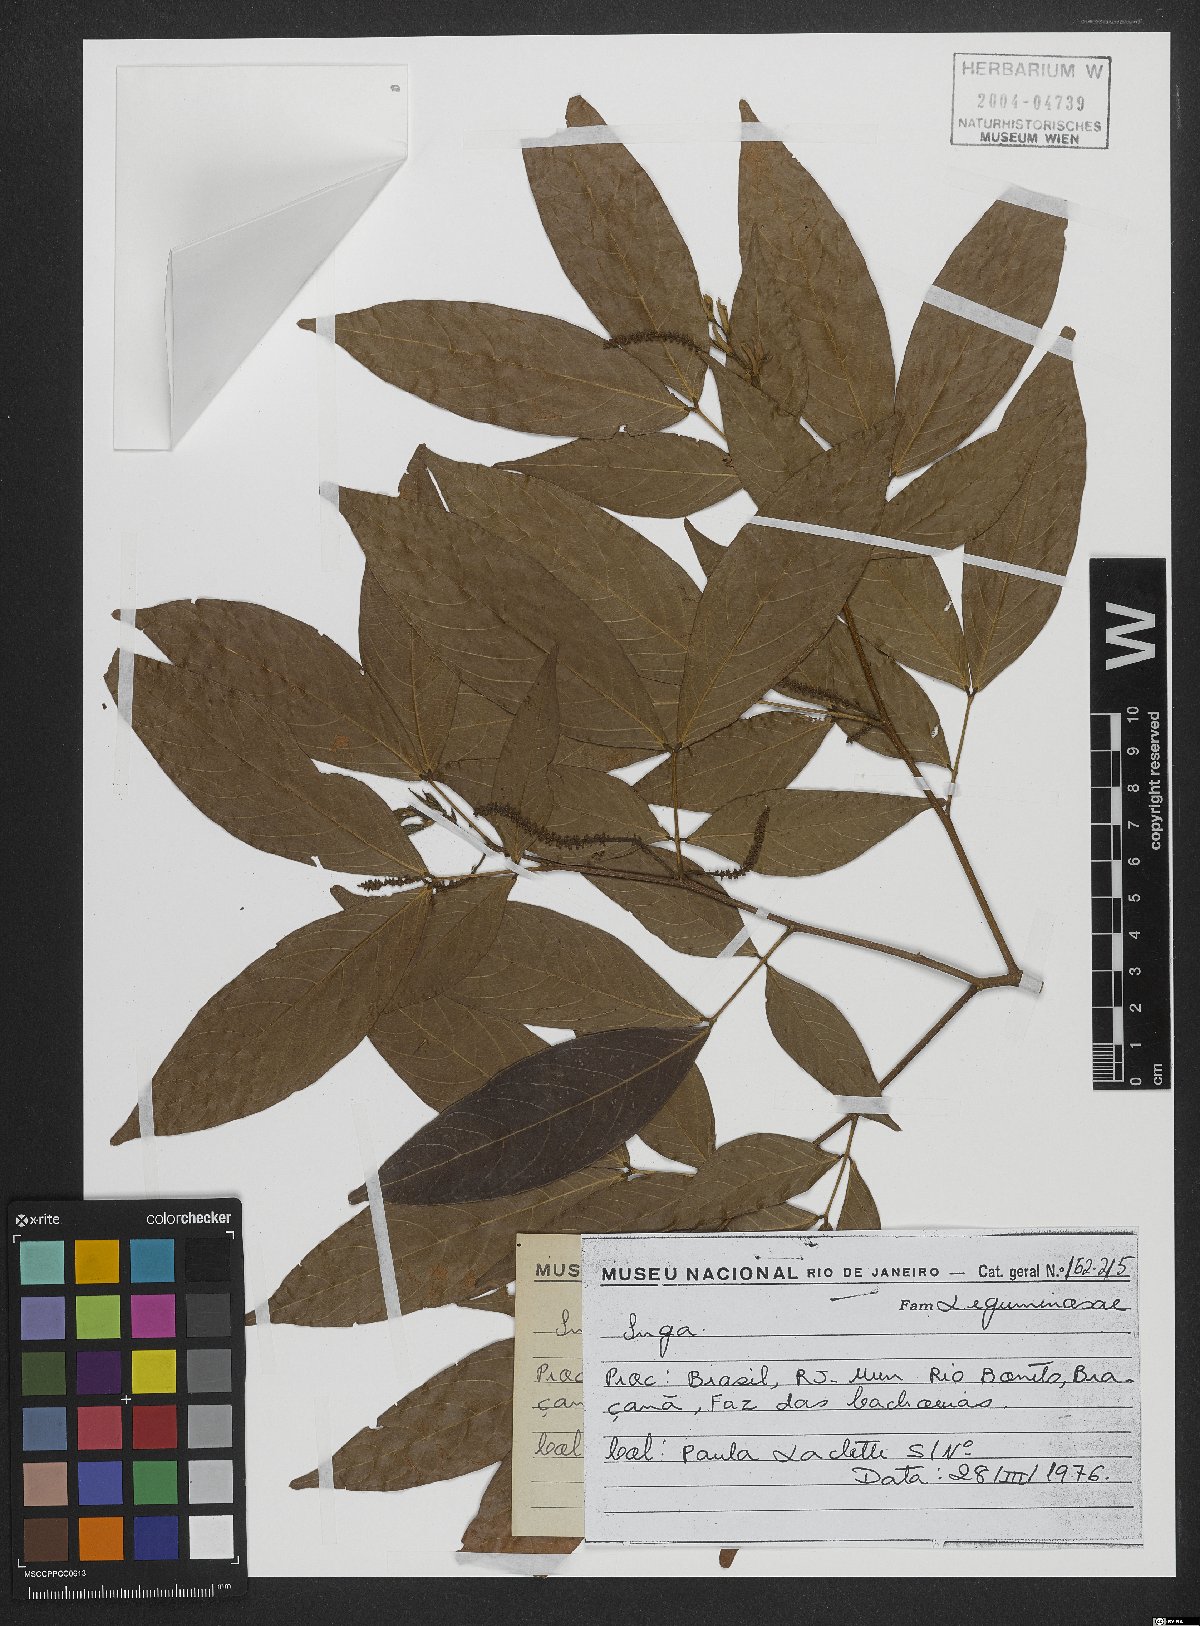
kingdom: Plantae
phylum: Tracheophyta
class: Magnoliopsida
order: Fabales
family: Fabaceae
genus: Inga
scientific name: Inga
